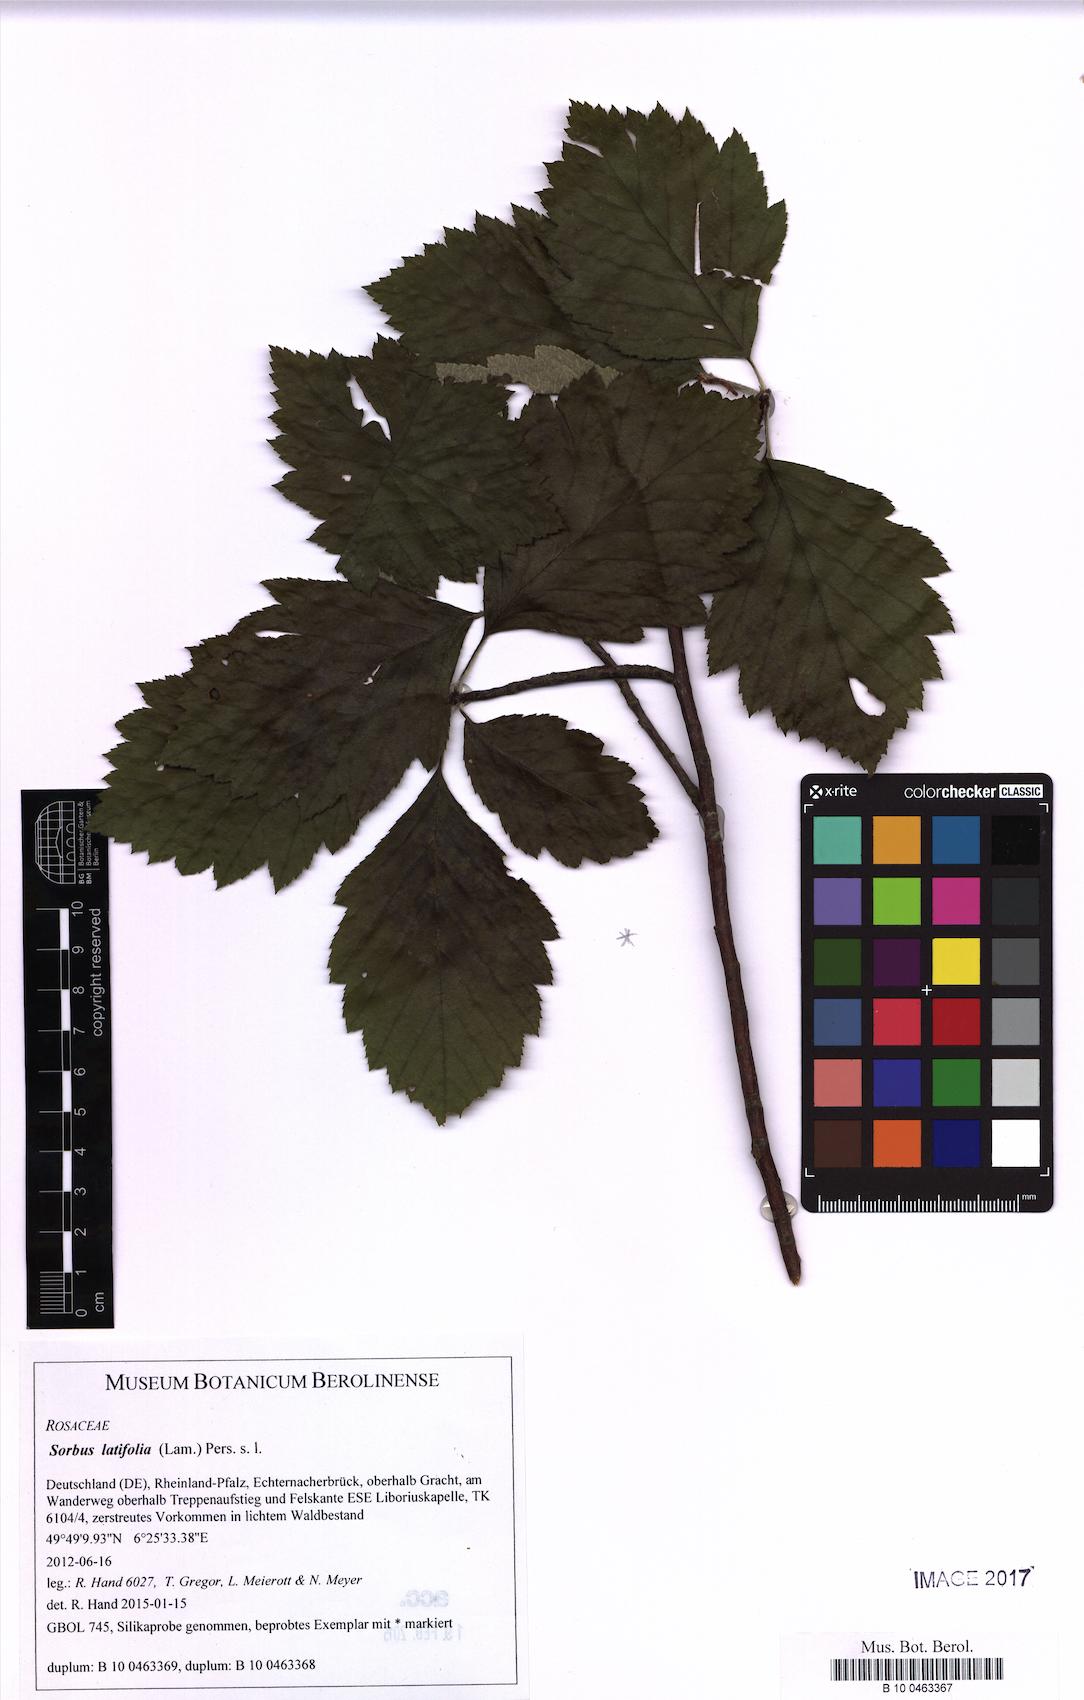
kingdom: Plantae
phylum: Tracheophyta
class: Magnoliopsida
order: Rosales
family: Rosaceae
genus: Karpatiosorbus
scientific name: Karpatiosorbus latifolia
